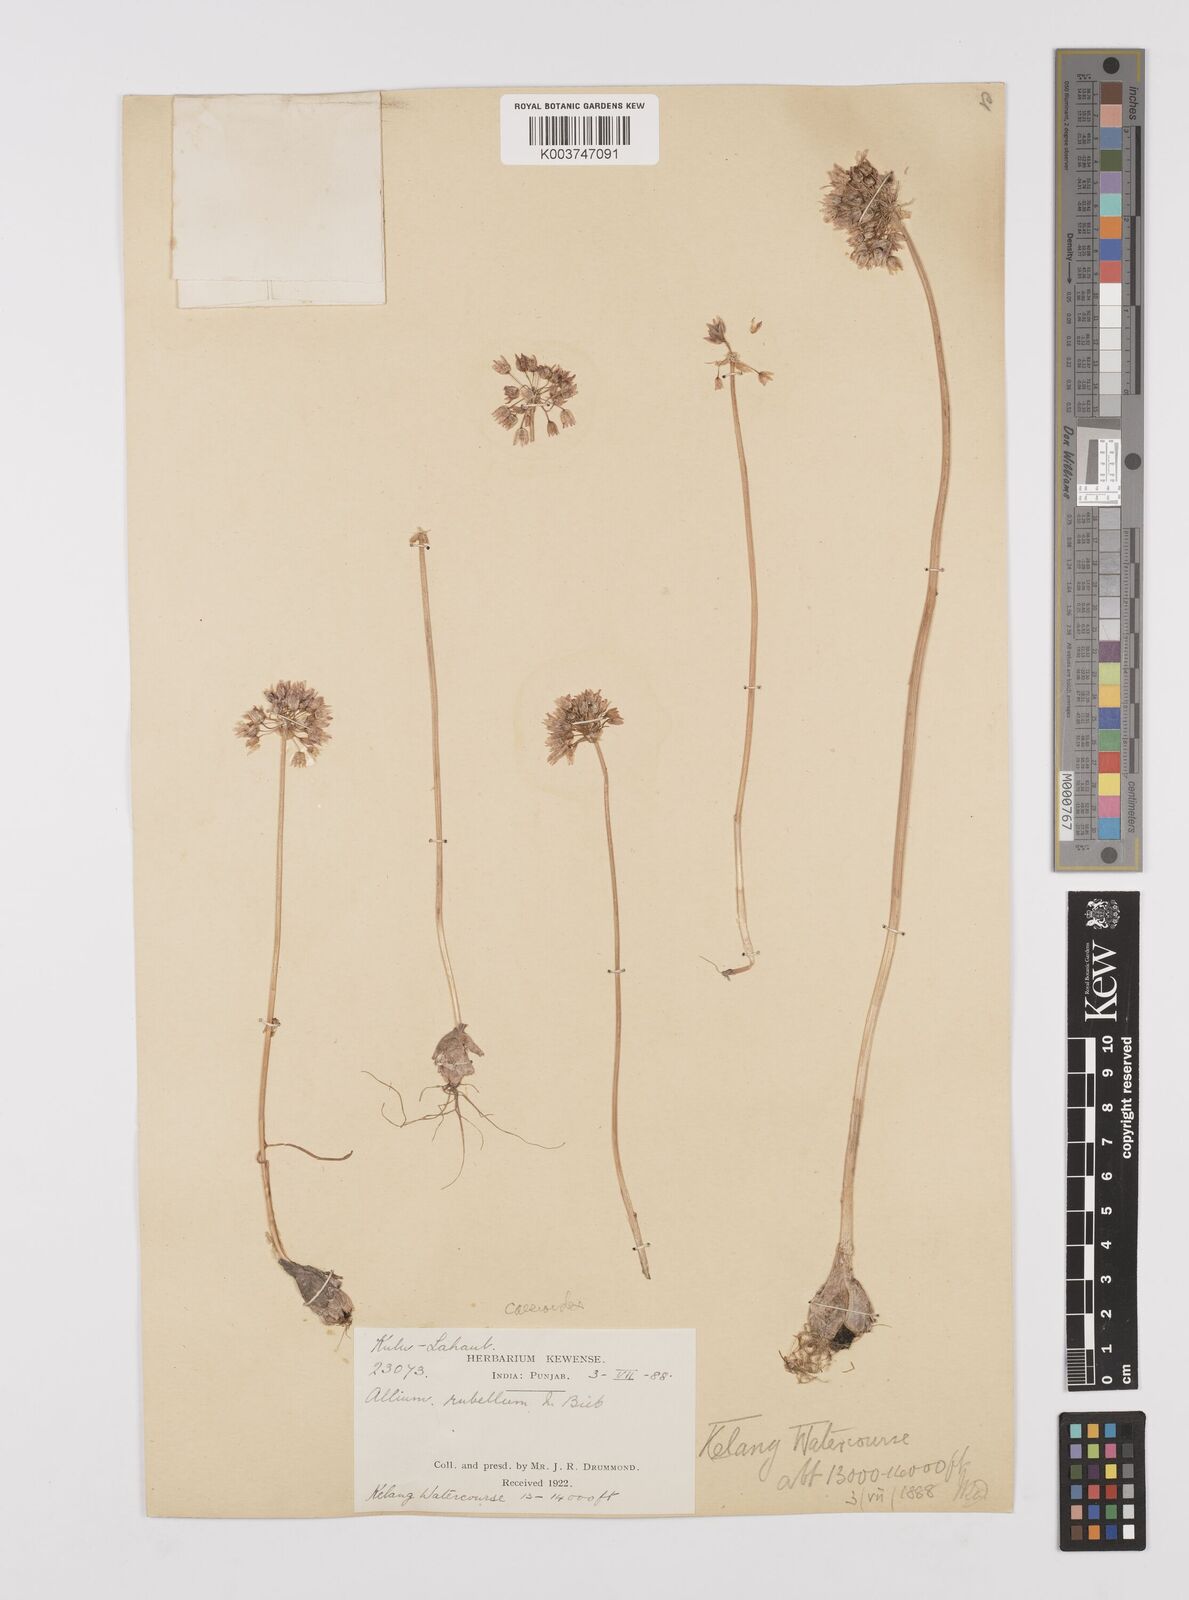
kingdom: Plantae
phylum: Tracheophyta
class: Liliopsida
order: Asparagales
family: Amaryllidaceae
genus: Allium
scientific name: Allium caesioides
